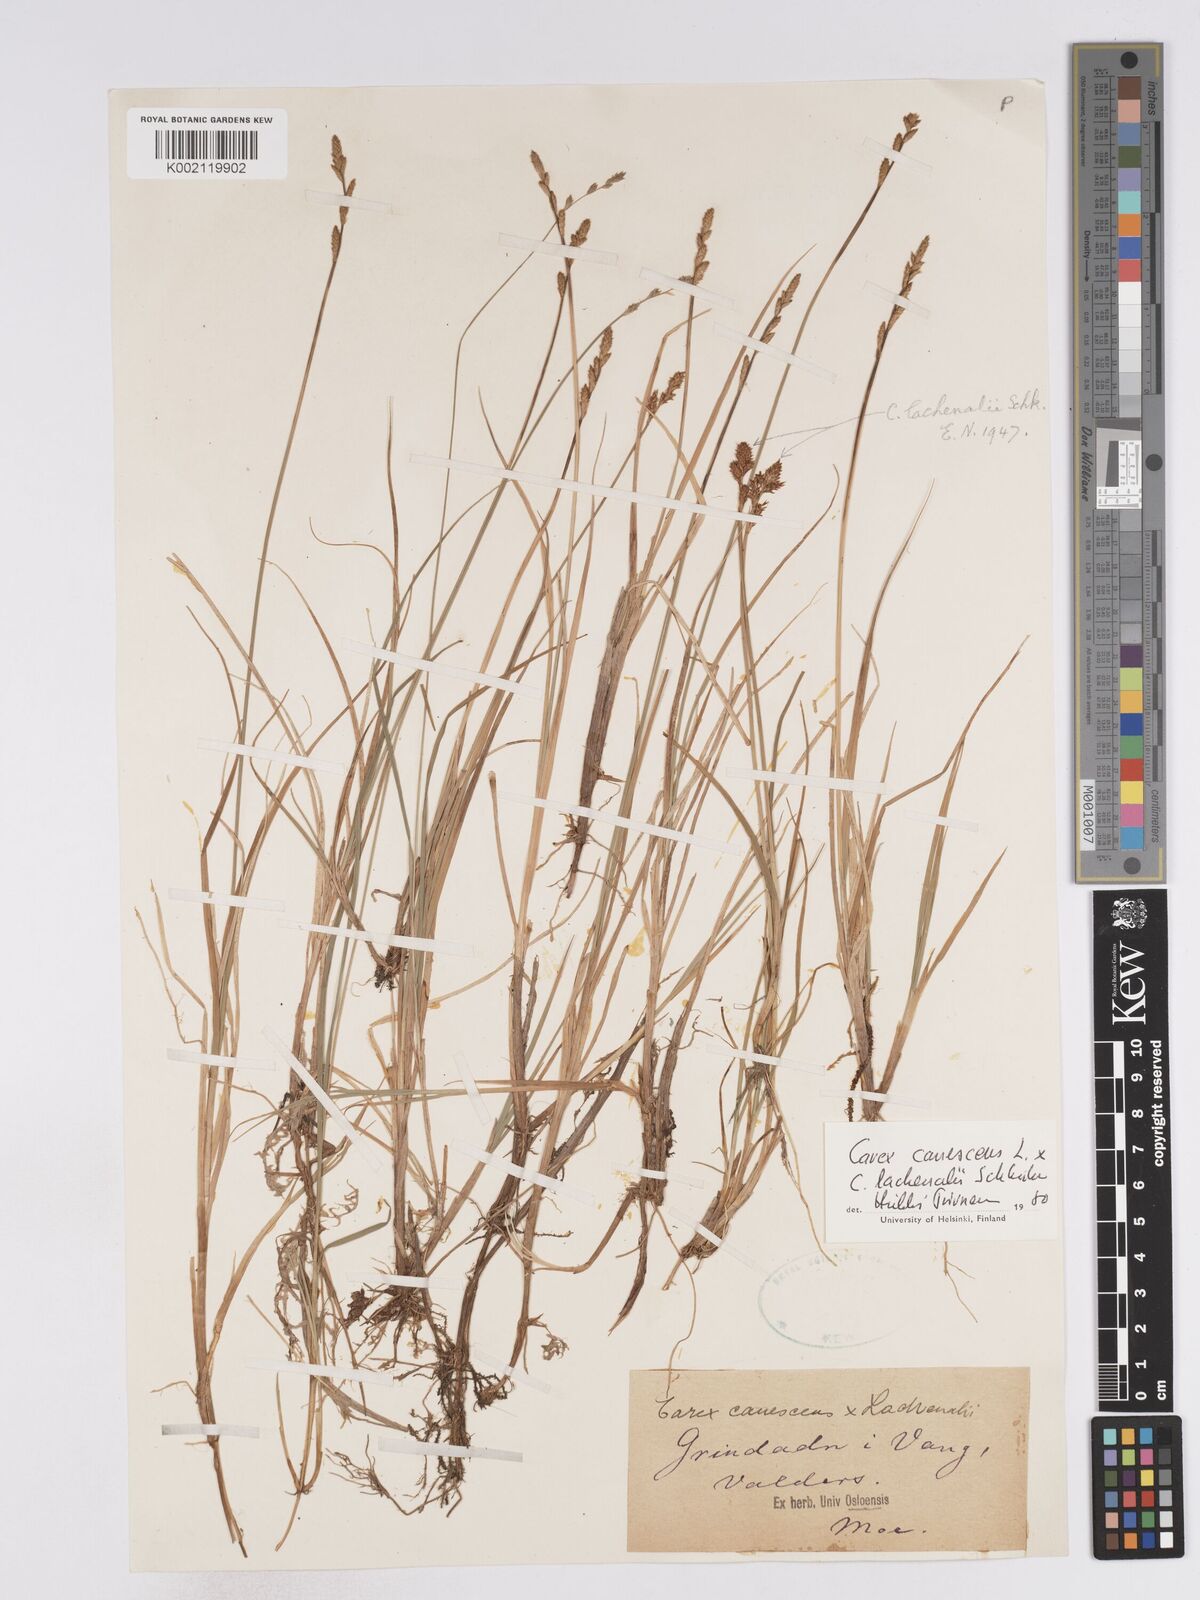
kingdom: Plantae
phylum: Tracheophyta
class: Liliopsida
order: Poales
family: Cyperaceae
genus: Carex
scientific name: Carex curta
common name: White sedge
